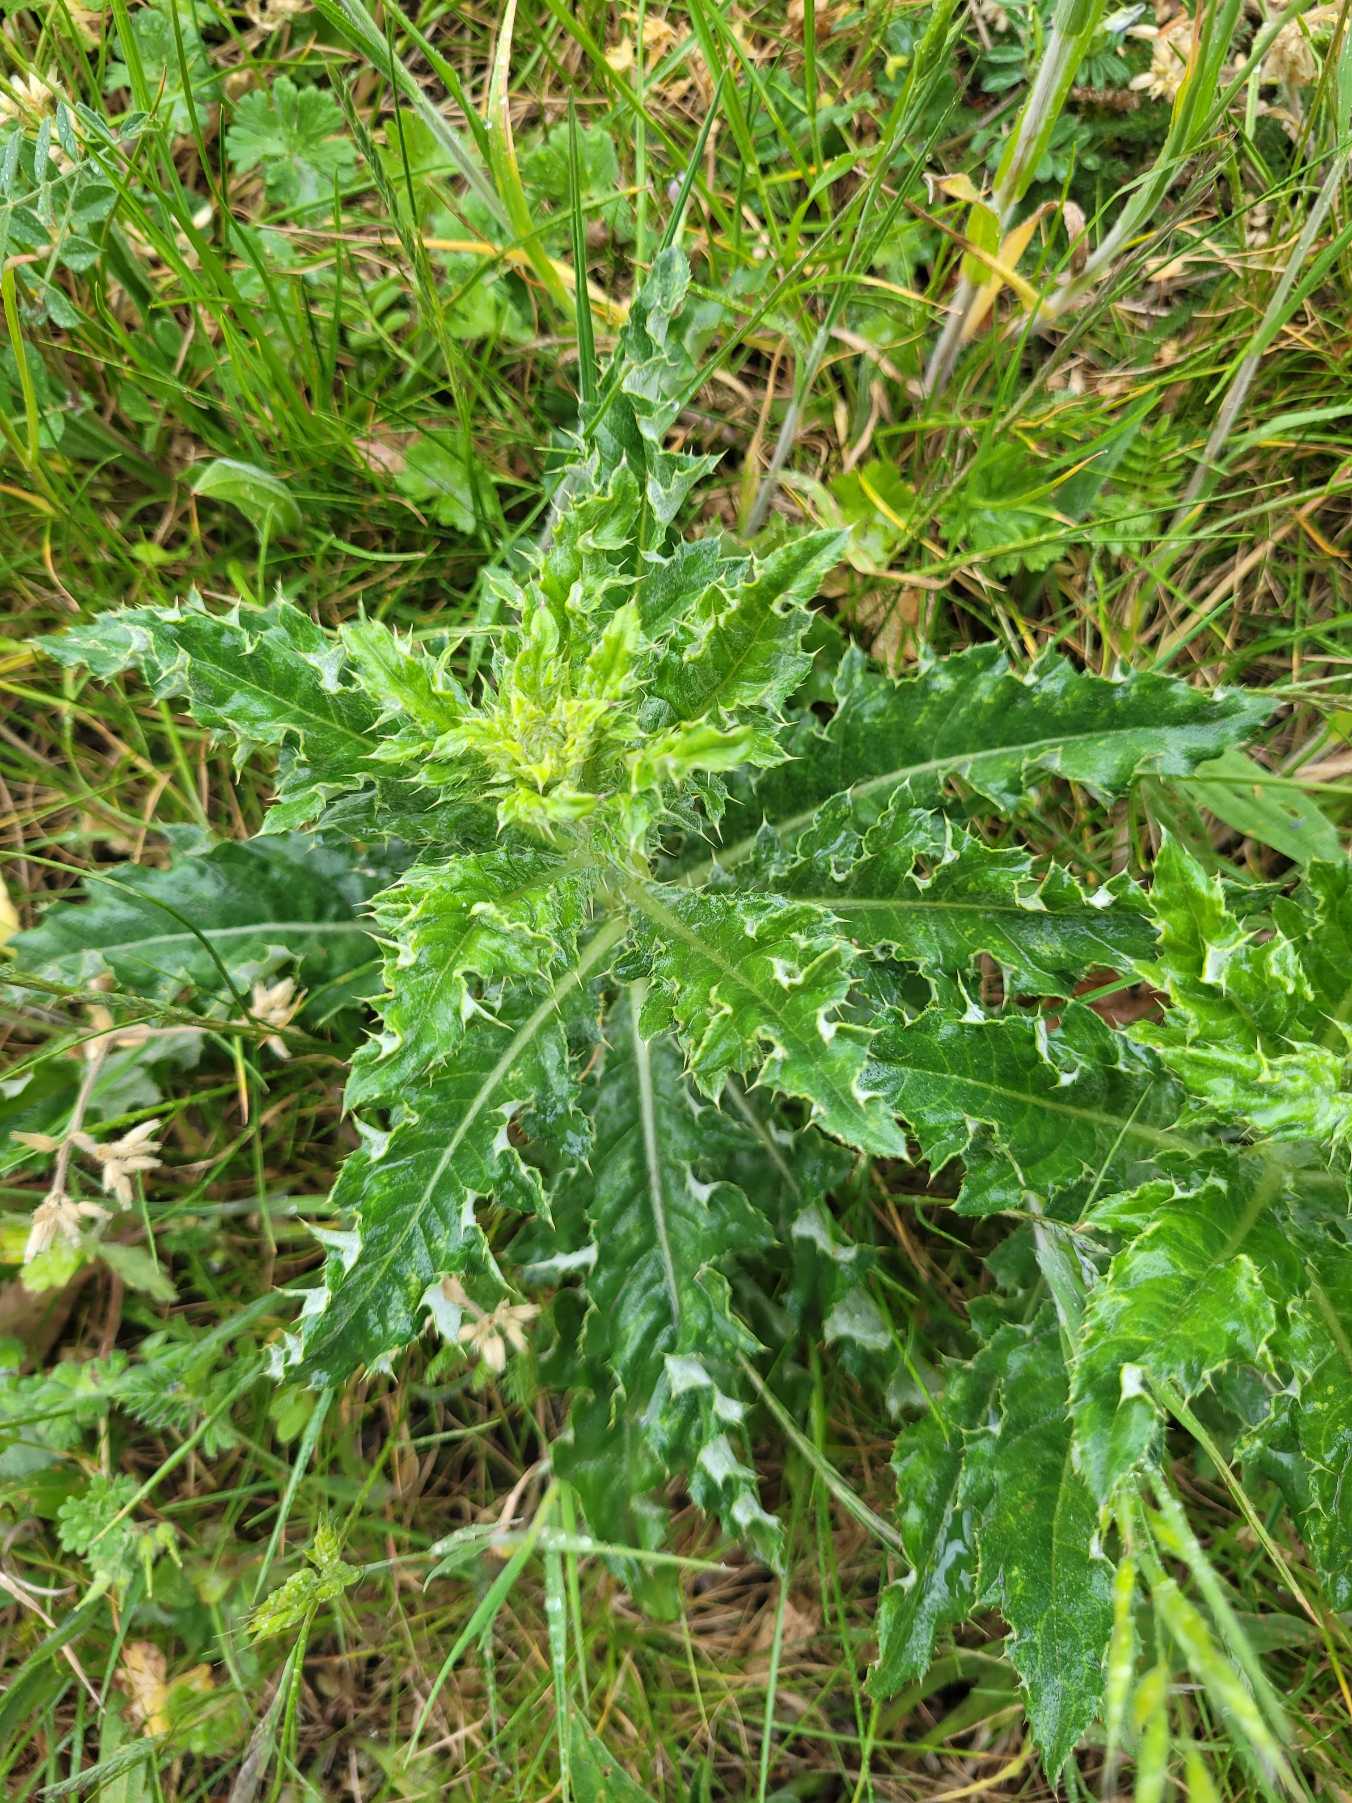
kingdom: Plantae
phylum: Tracheophyta
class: Magnoliopsida
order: Asterales
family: Asteraceae
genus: Cirsium
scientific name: Cirsium arvense
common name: Ager-tidsel
